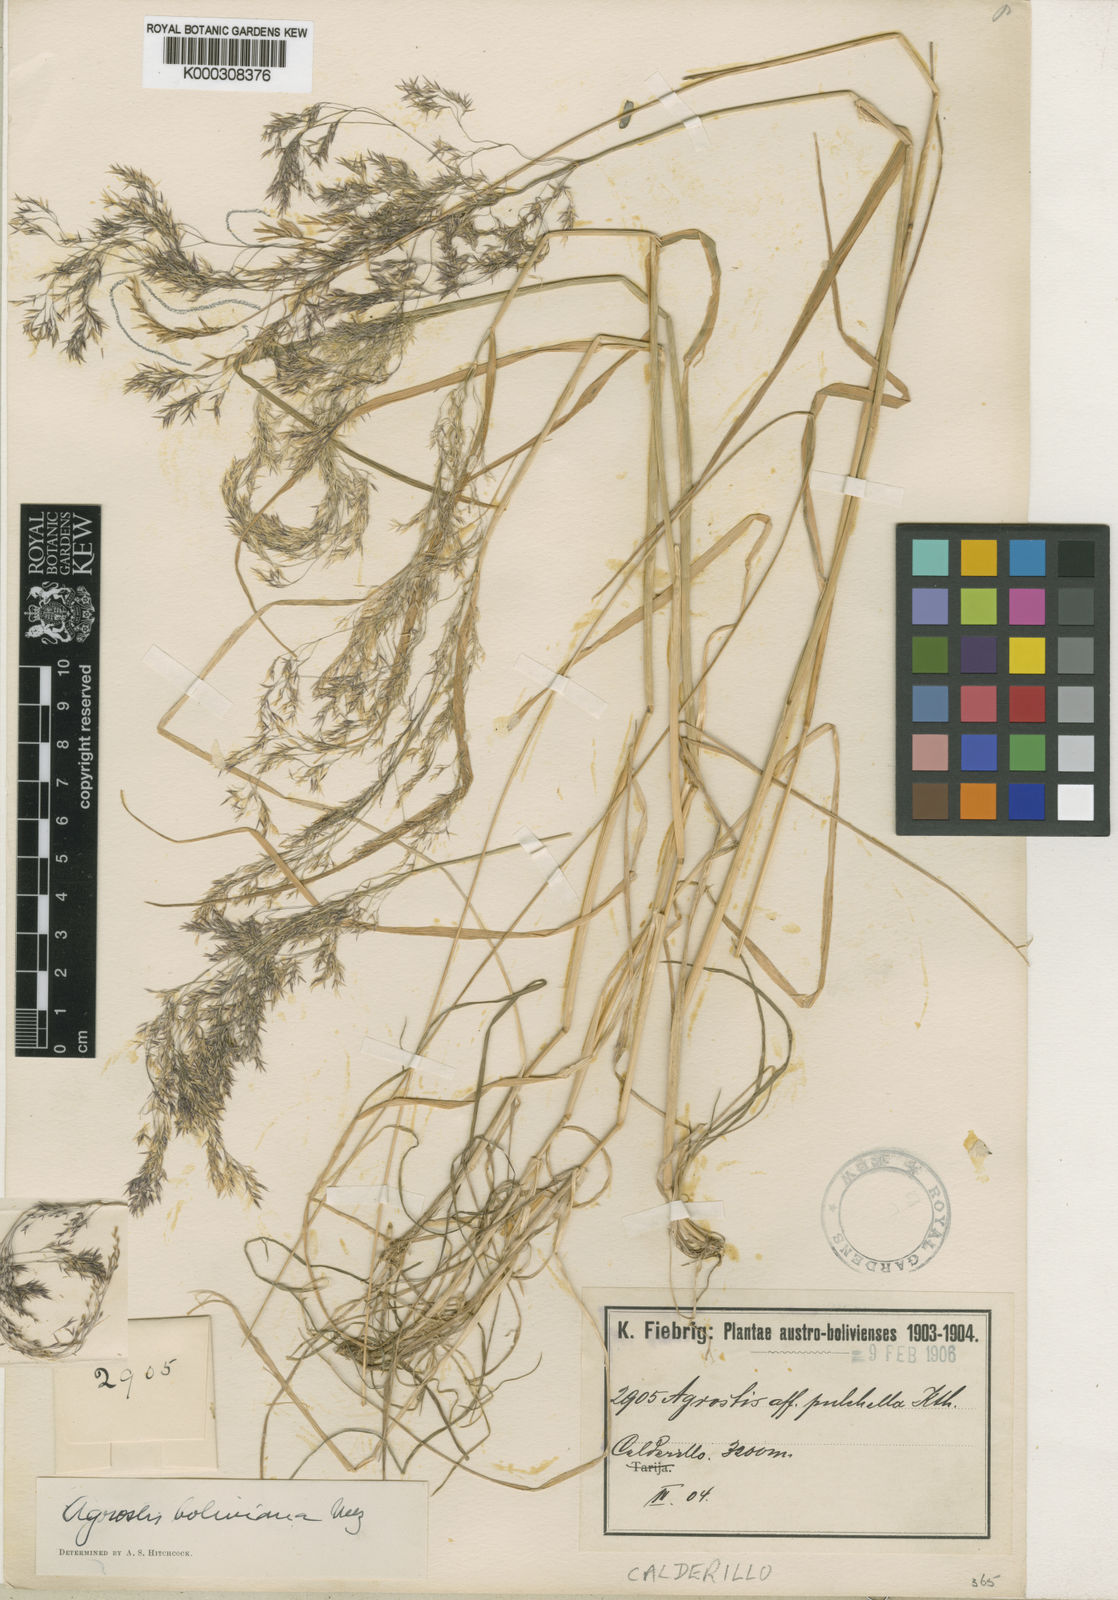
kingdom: Plantae
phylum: Tracheophyta
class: Liliopsida
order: Poales
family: Poaceae
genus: Agrostis
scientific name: Agrostis mertensii
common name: Northern bent
